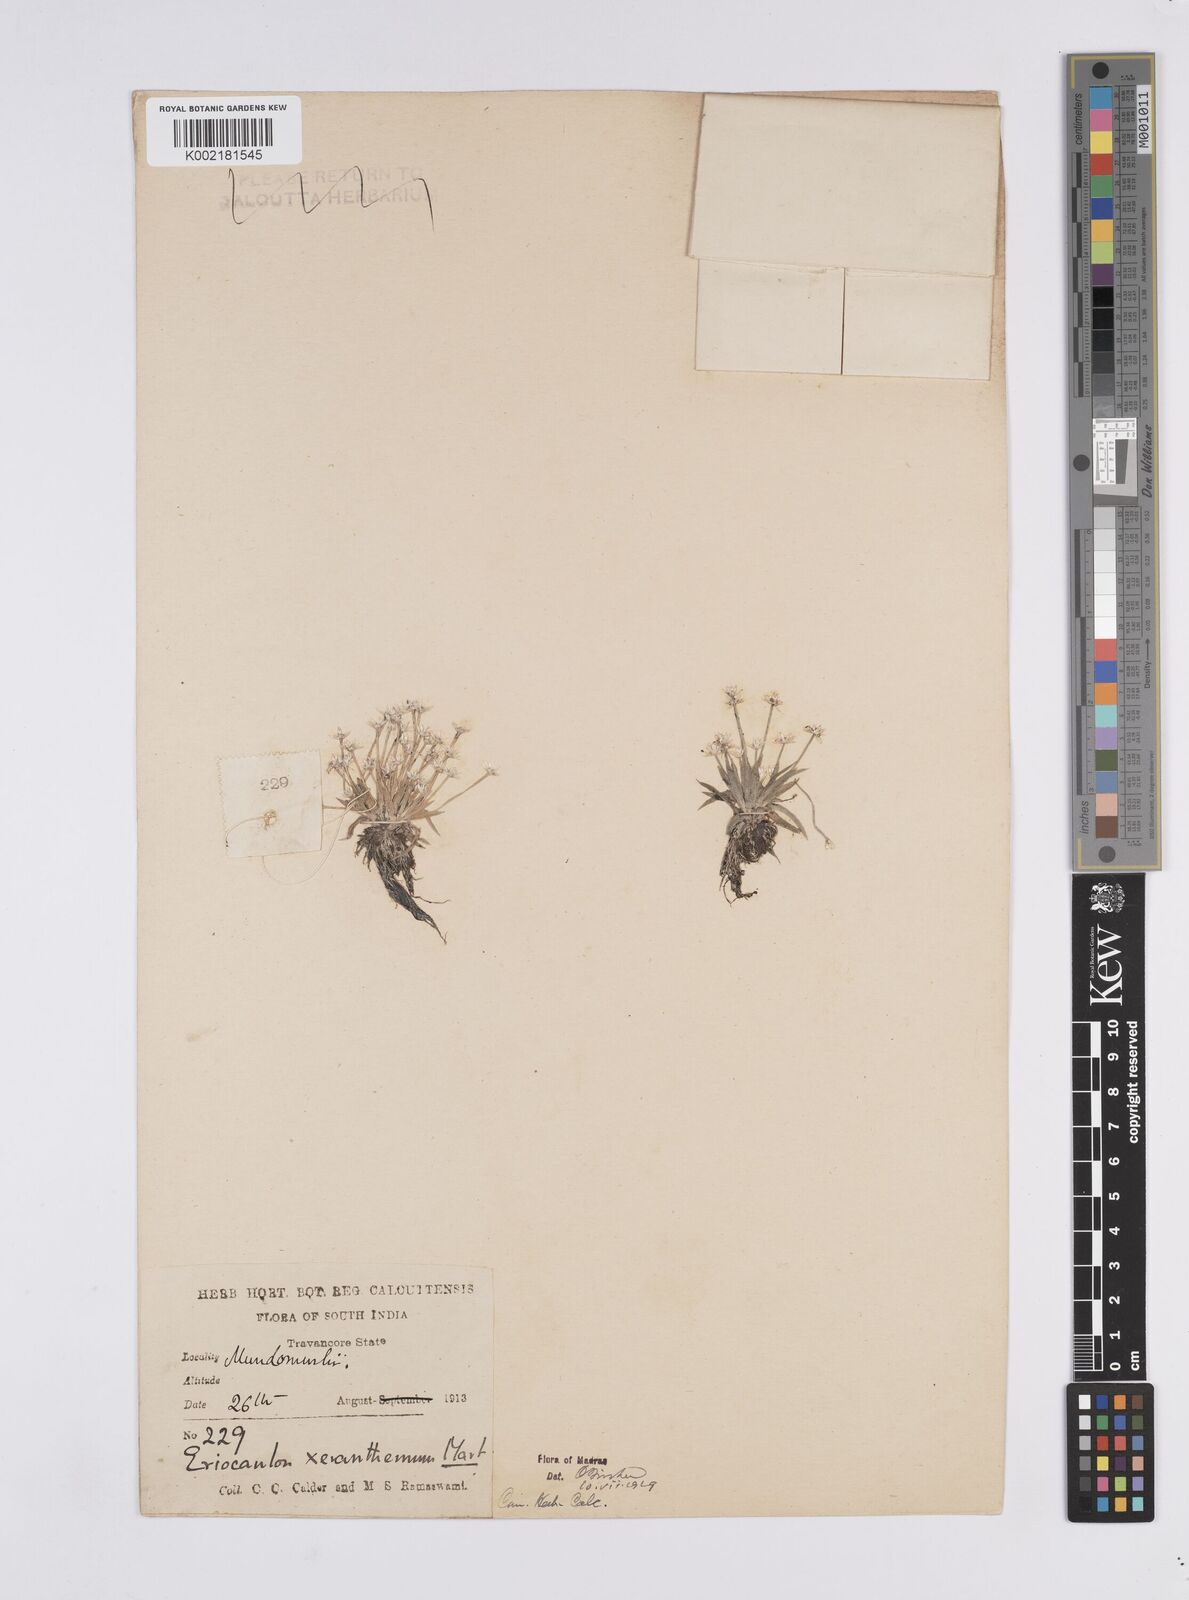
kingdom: Plantae
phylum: Tracheophyta
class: Liliopsida
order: Poales
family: Eriocaulaceae
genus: Eriocaulon
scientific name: Eriocaulon xeranthemum
